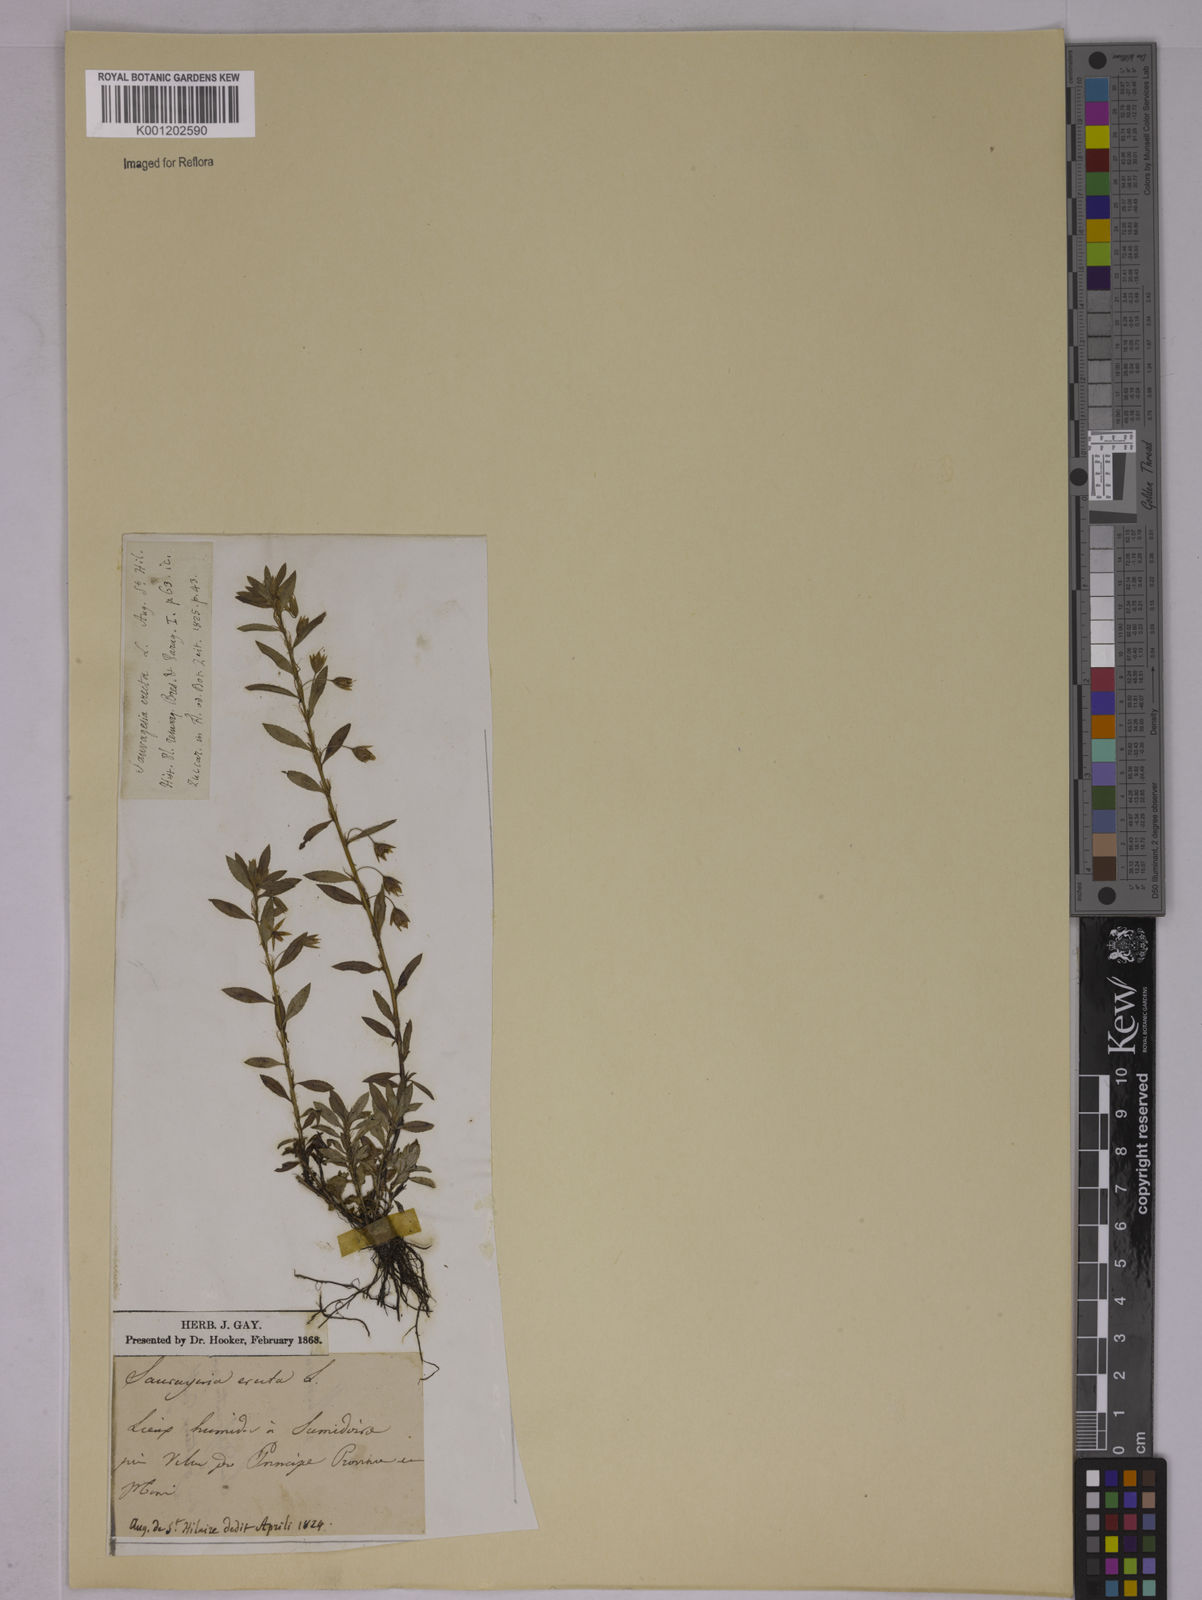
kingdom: Plantae
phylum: Tracheophyta
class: Magnoliopsida
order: Malpighiales
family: Ochnaceae
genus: Sauvagesia
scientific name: Sauvagesia erecta
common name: Creole tea
